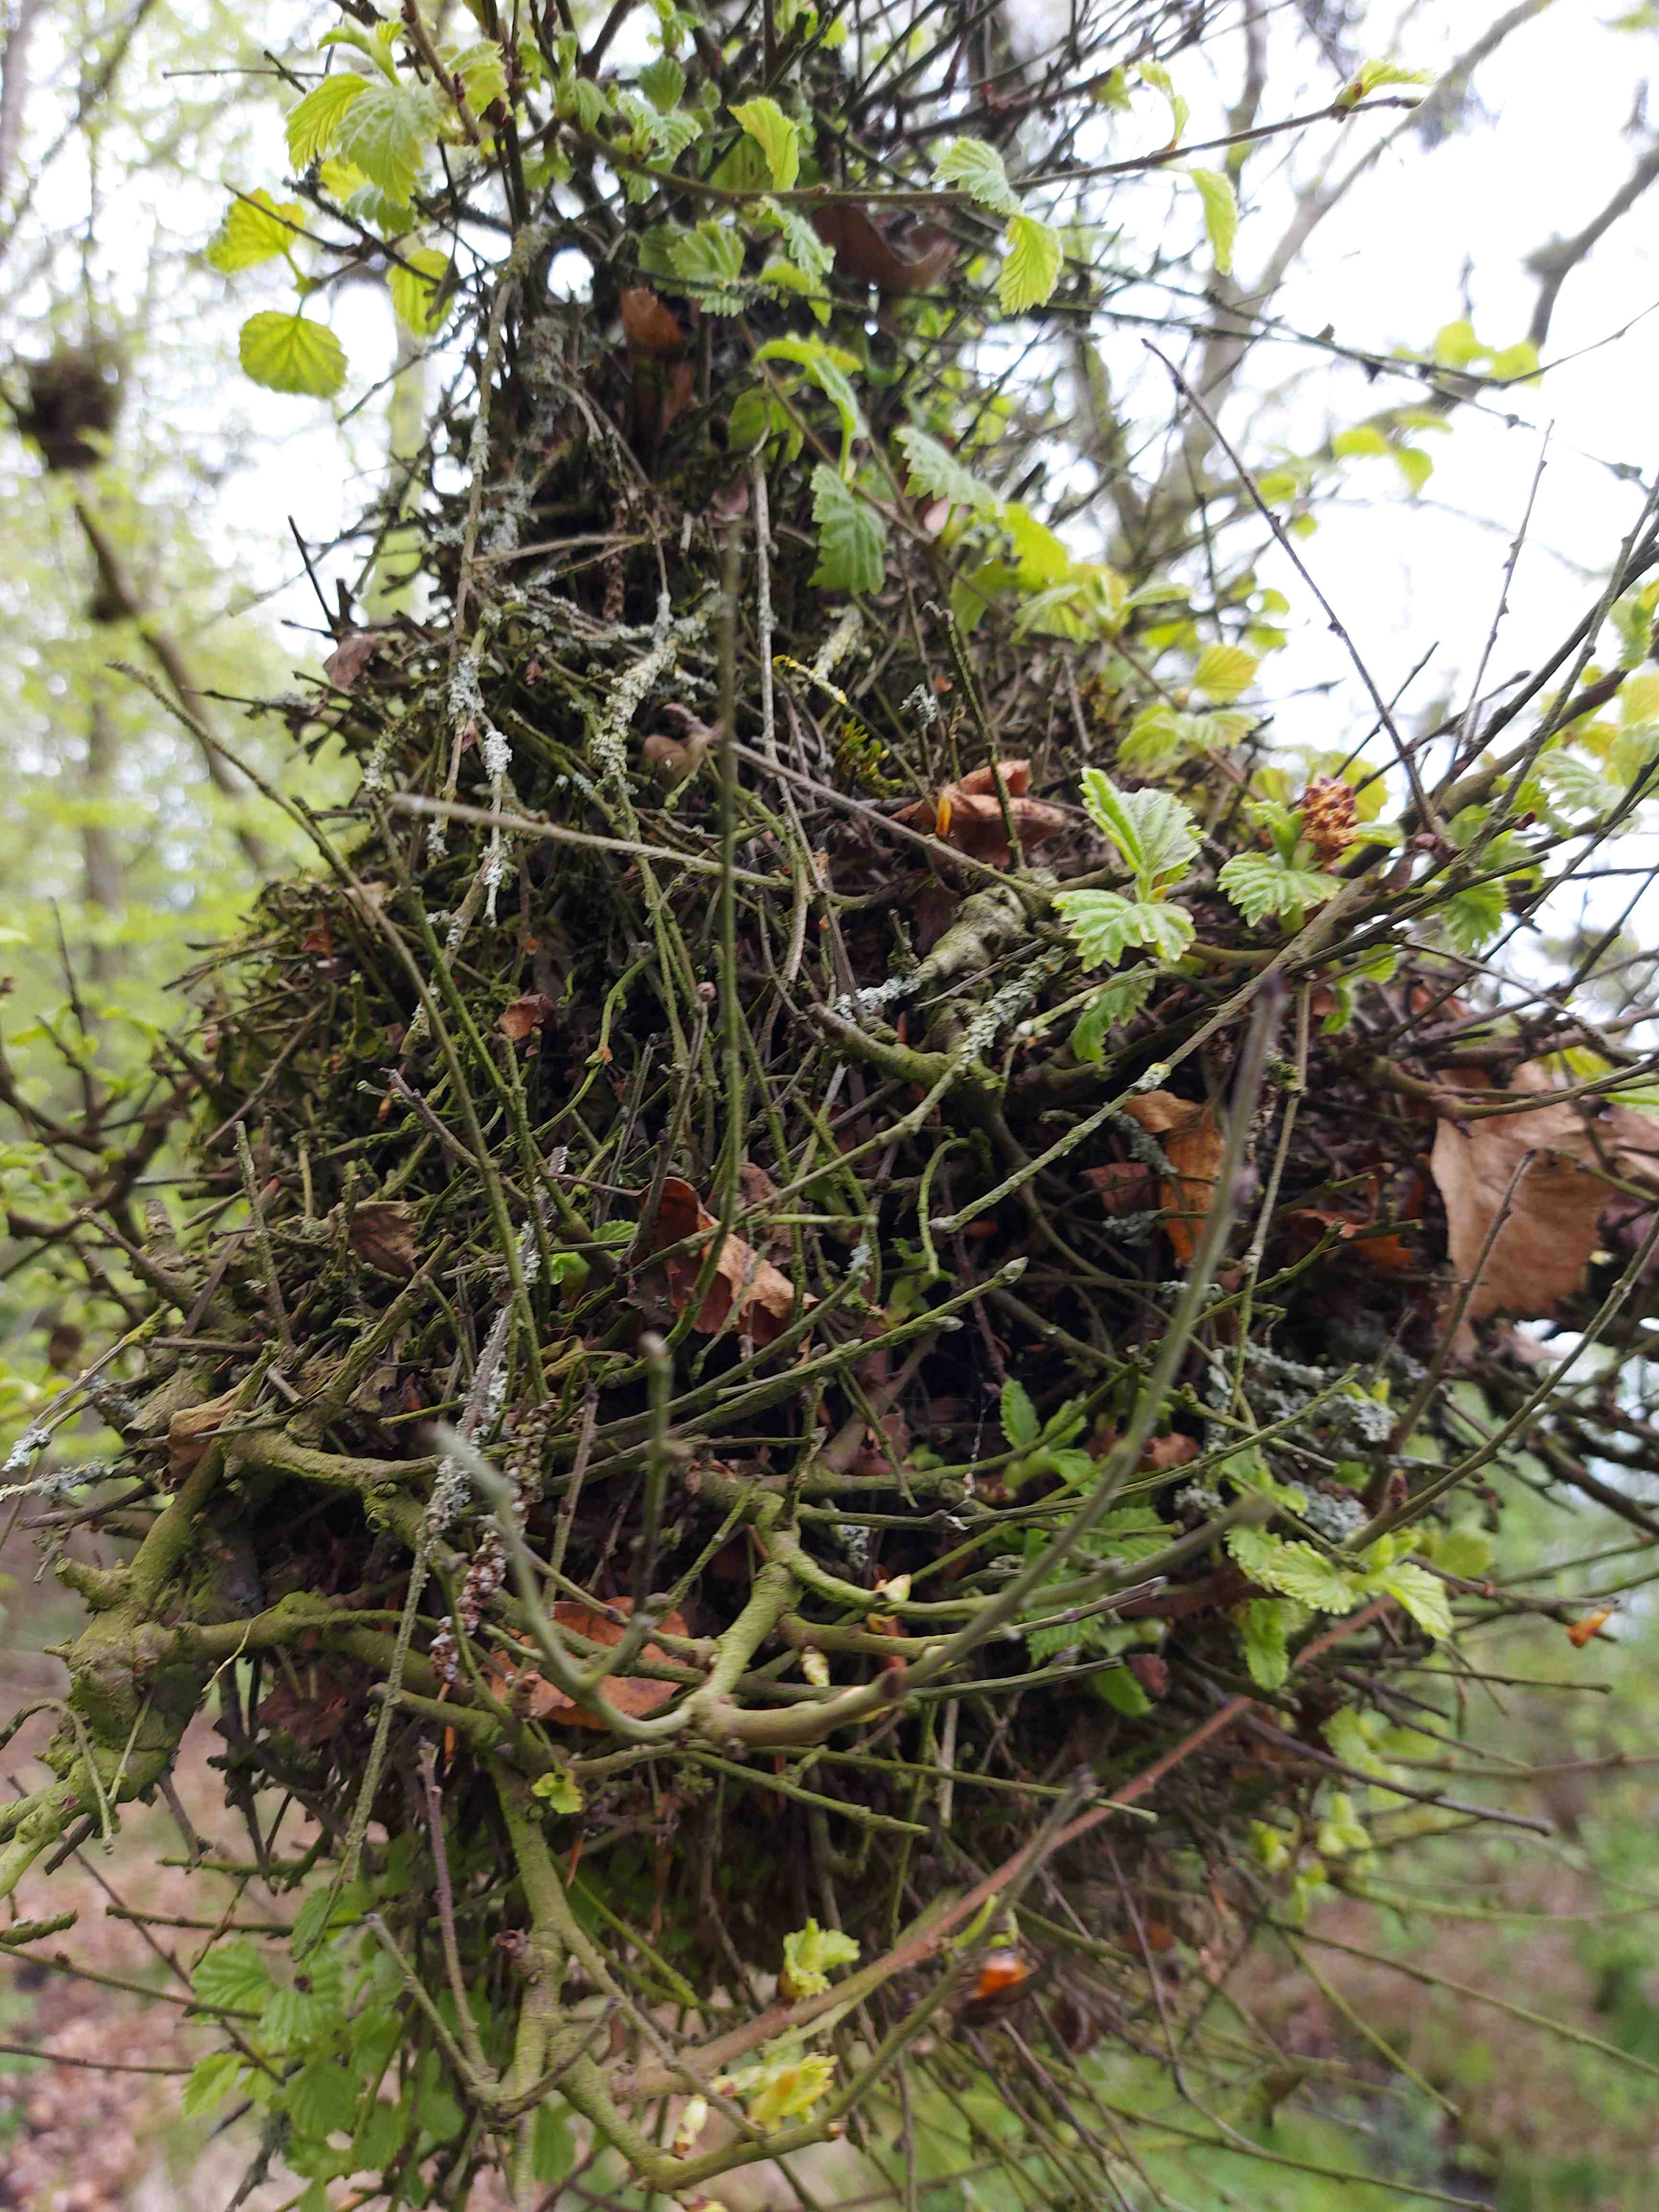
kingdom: Fungi
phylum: Ascomycota
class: Taphrinomycetes
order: Taphrinales
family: Taphrinaceae
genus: Taphrina
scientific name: Taphrina betulina
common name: hekse-sækdug
